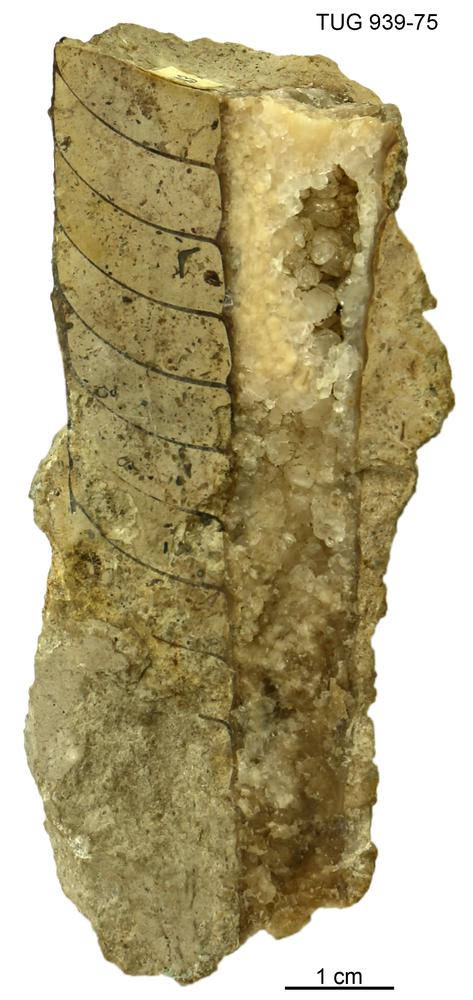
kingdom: Animalia
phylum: Mollusca
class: Cephalopoda
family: Endoceratidae
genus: Cameroceras
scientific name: Cameroceras Endoceras regulus
